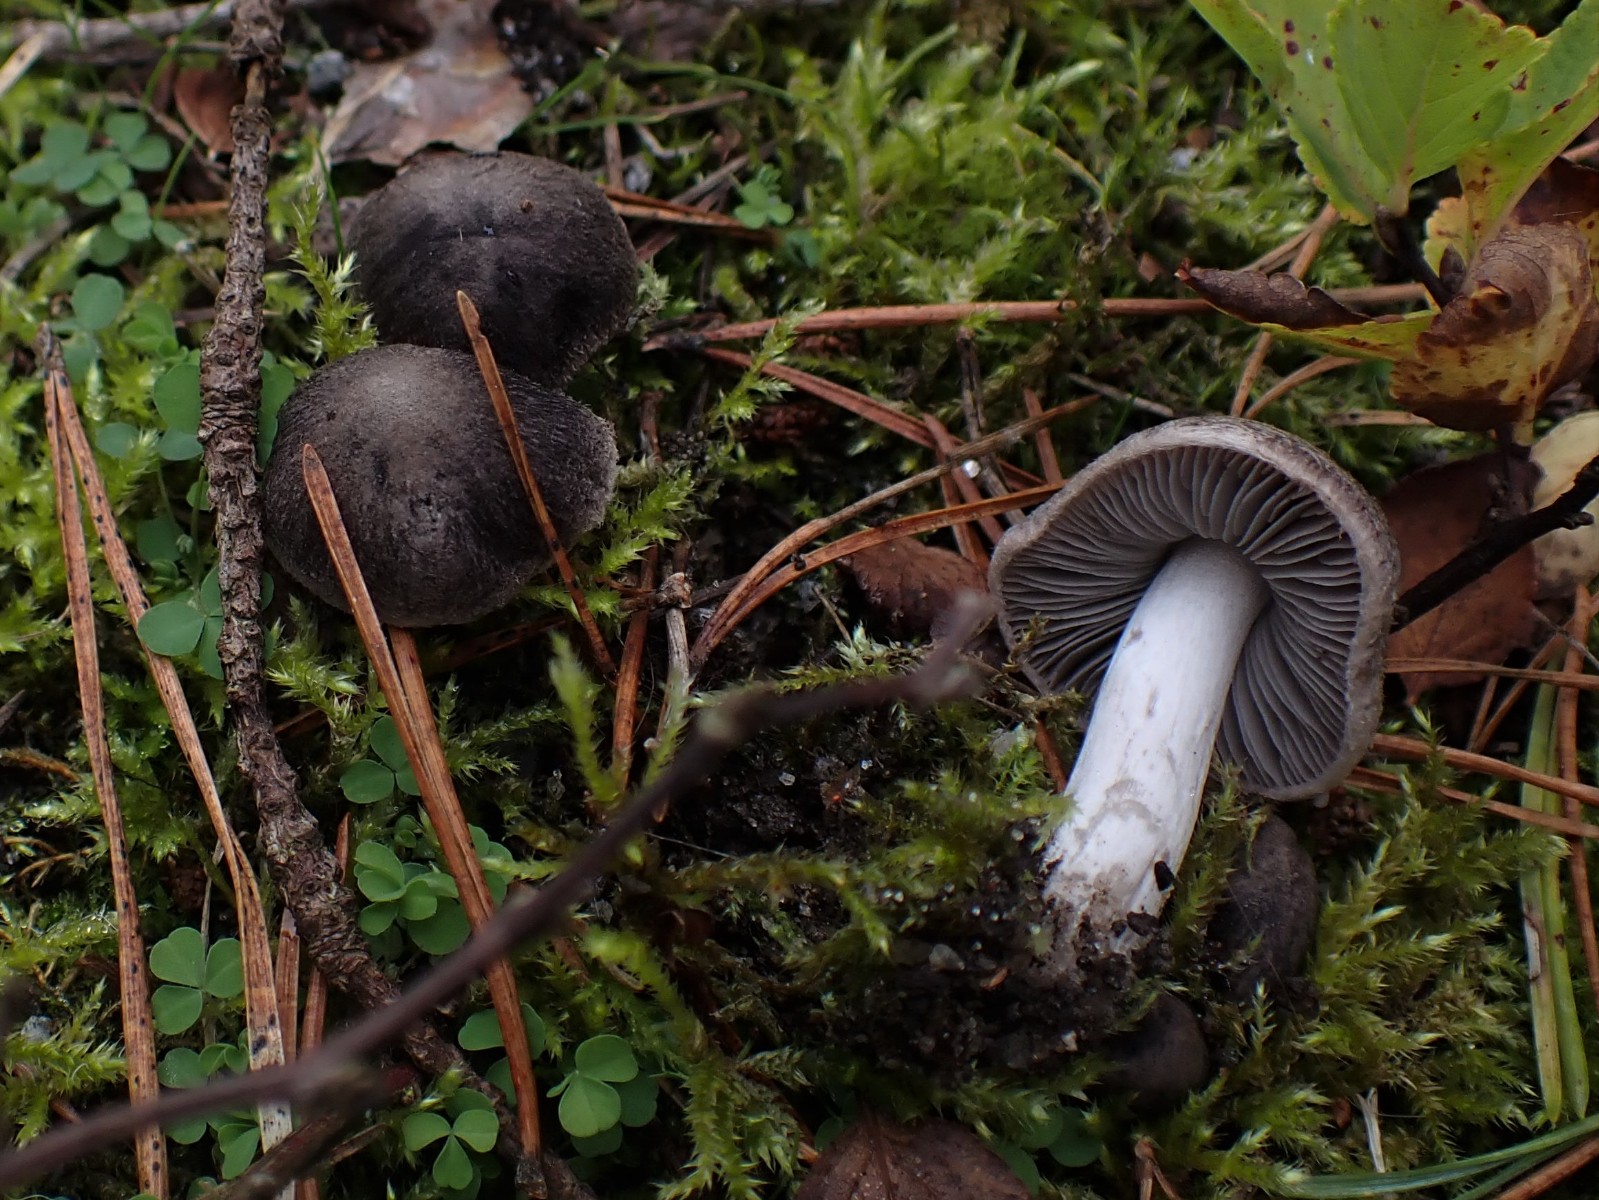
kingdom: Fungi
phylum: Basidiomycota
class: Agaricomycetes
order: Agaricales
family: Tricholomataceae
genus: Tricholoma
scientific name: Tricholoma terreum
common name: jordfarvet ridderhat
